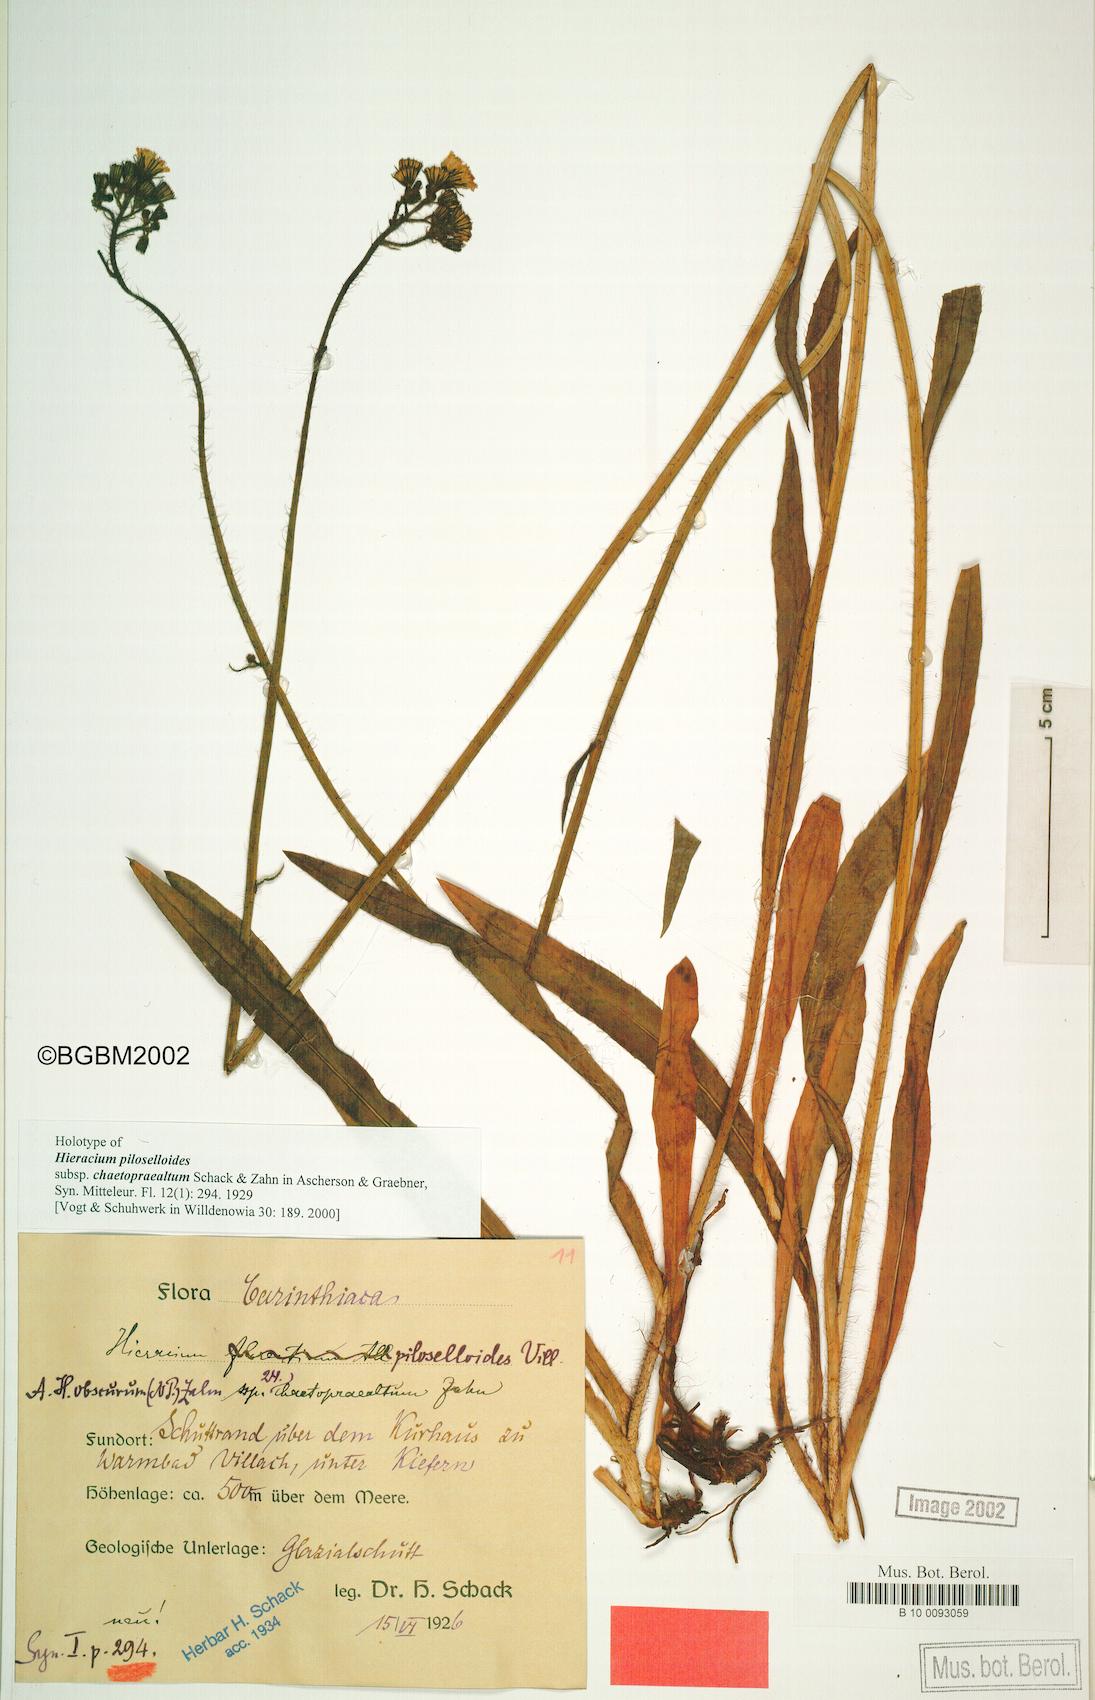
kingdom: Plantae
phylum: Tracheophyta
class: Magnoliopsida
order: Asterales
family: Asteraceae
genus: Hieracium
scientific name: Hieracium piloselloides
